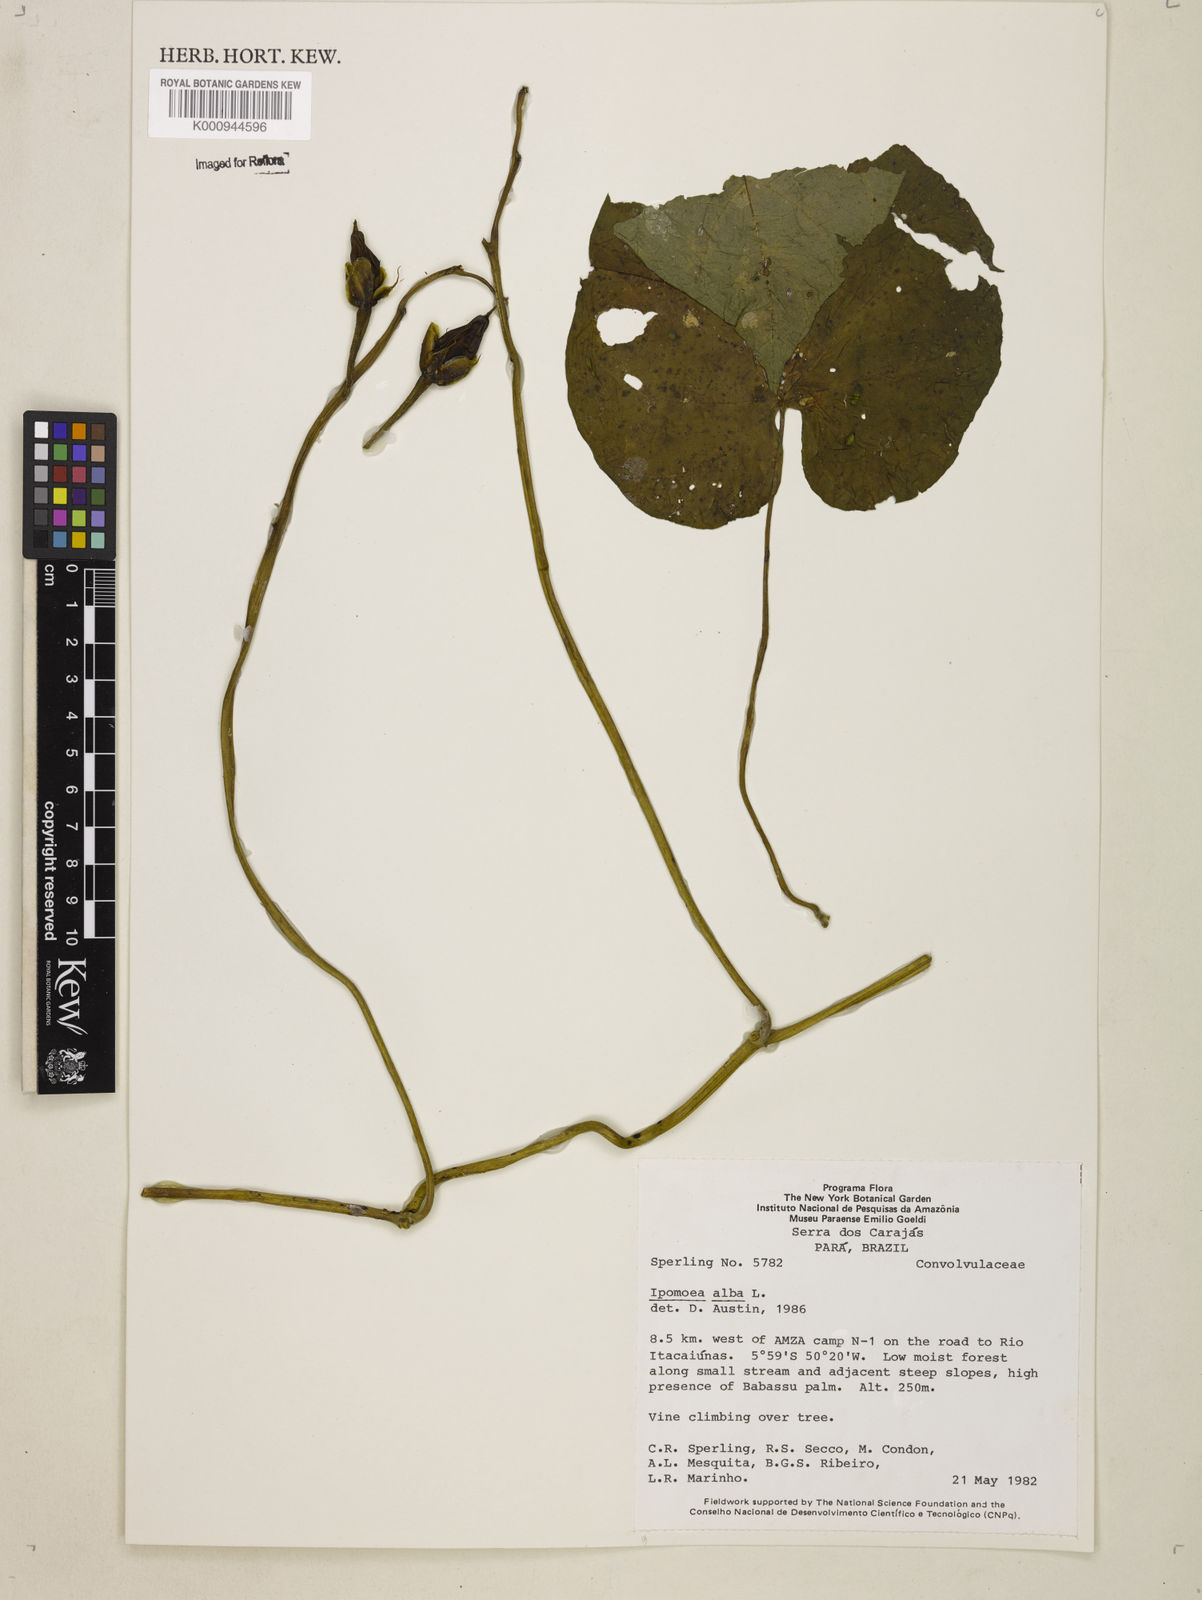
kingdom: Plantae
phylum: Tracheophyta
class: Magnoliopsida
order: Solanales
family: Convolvulaceae
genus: Ipomoea
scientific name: Ipomoea alba
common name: Moonflower
